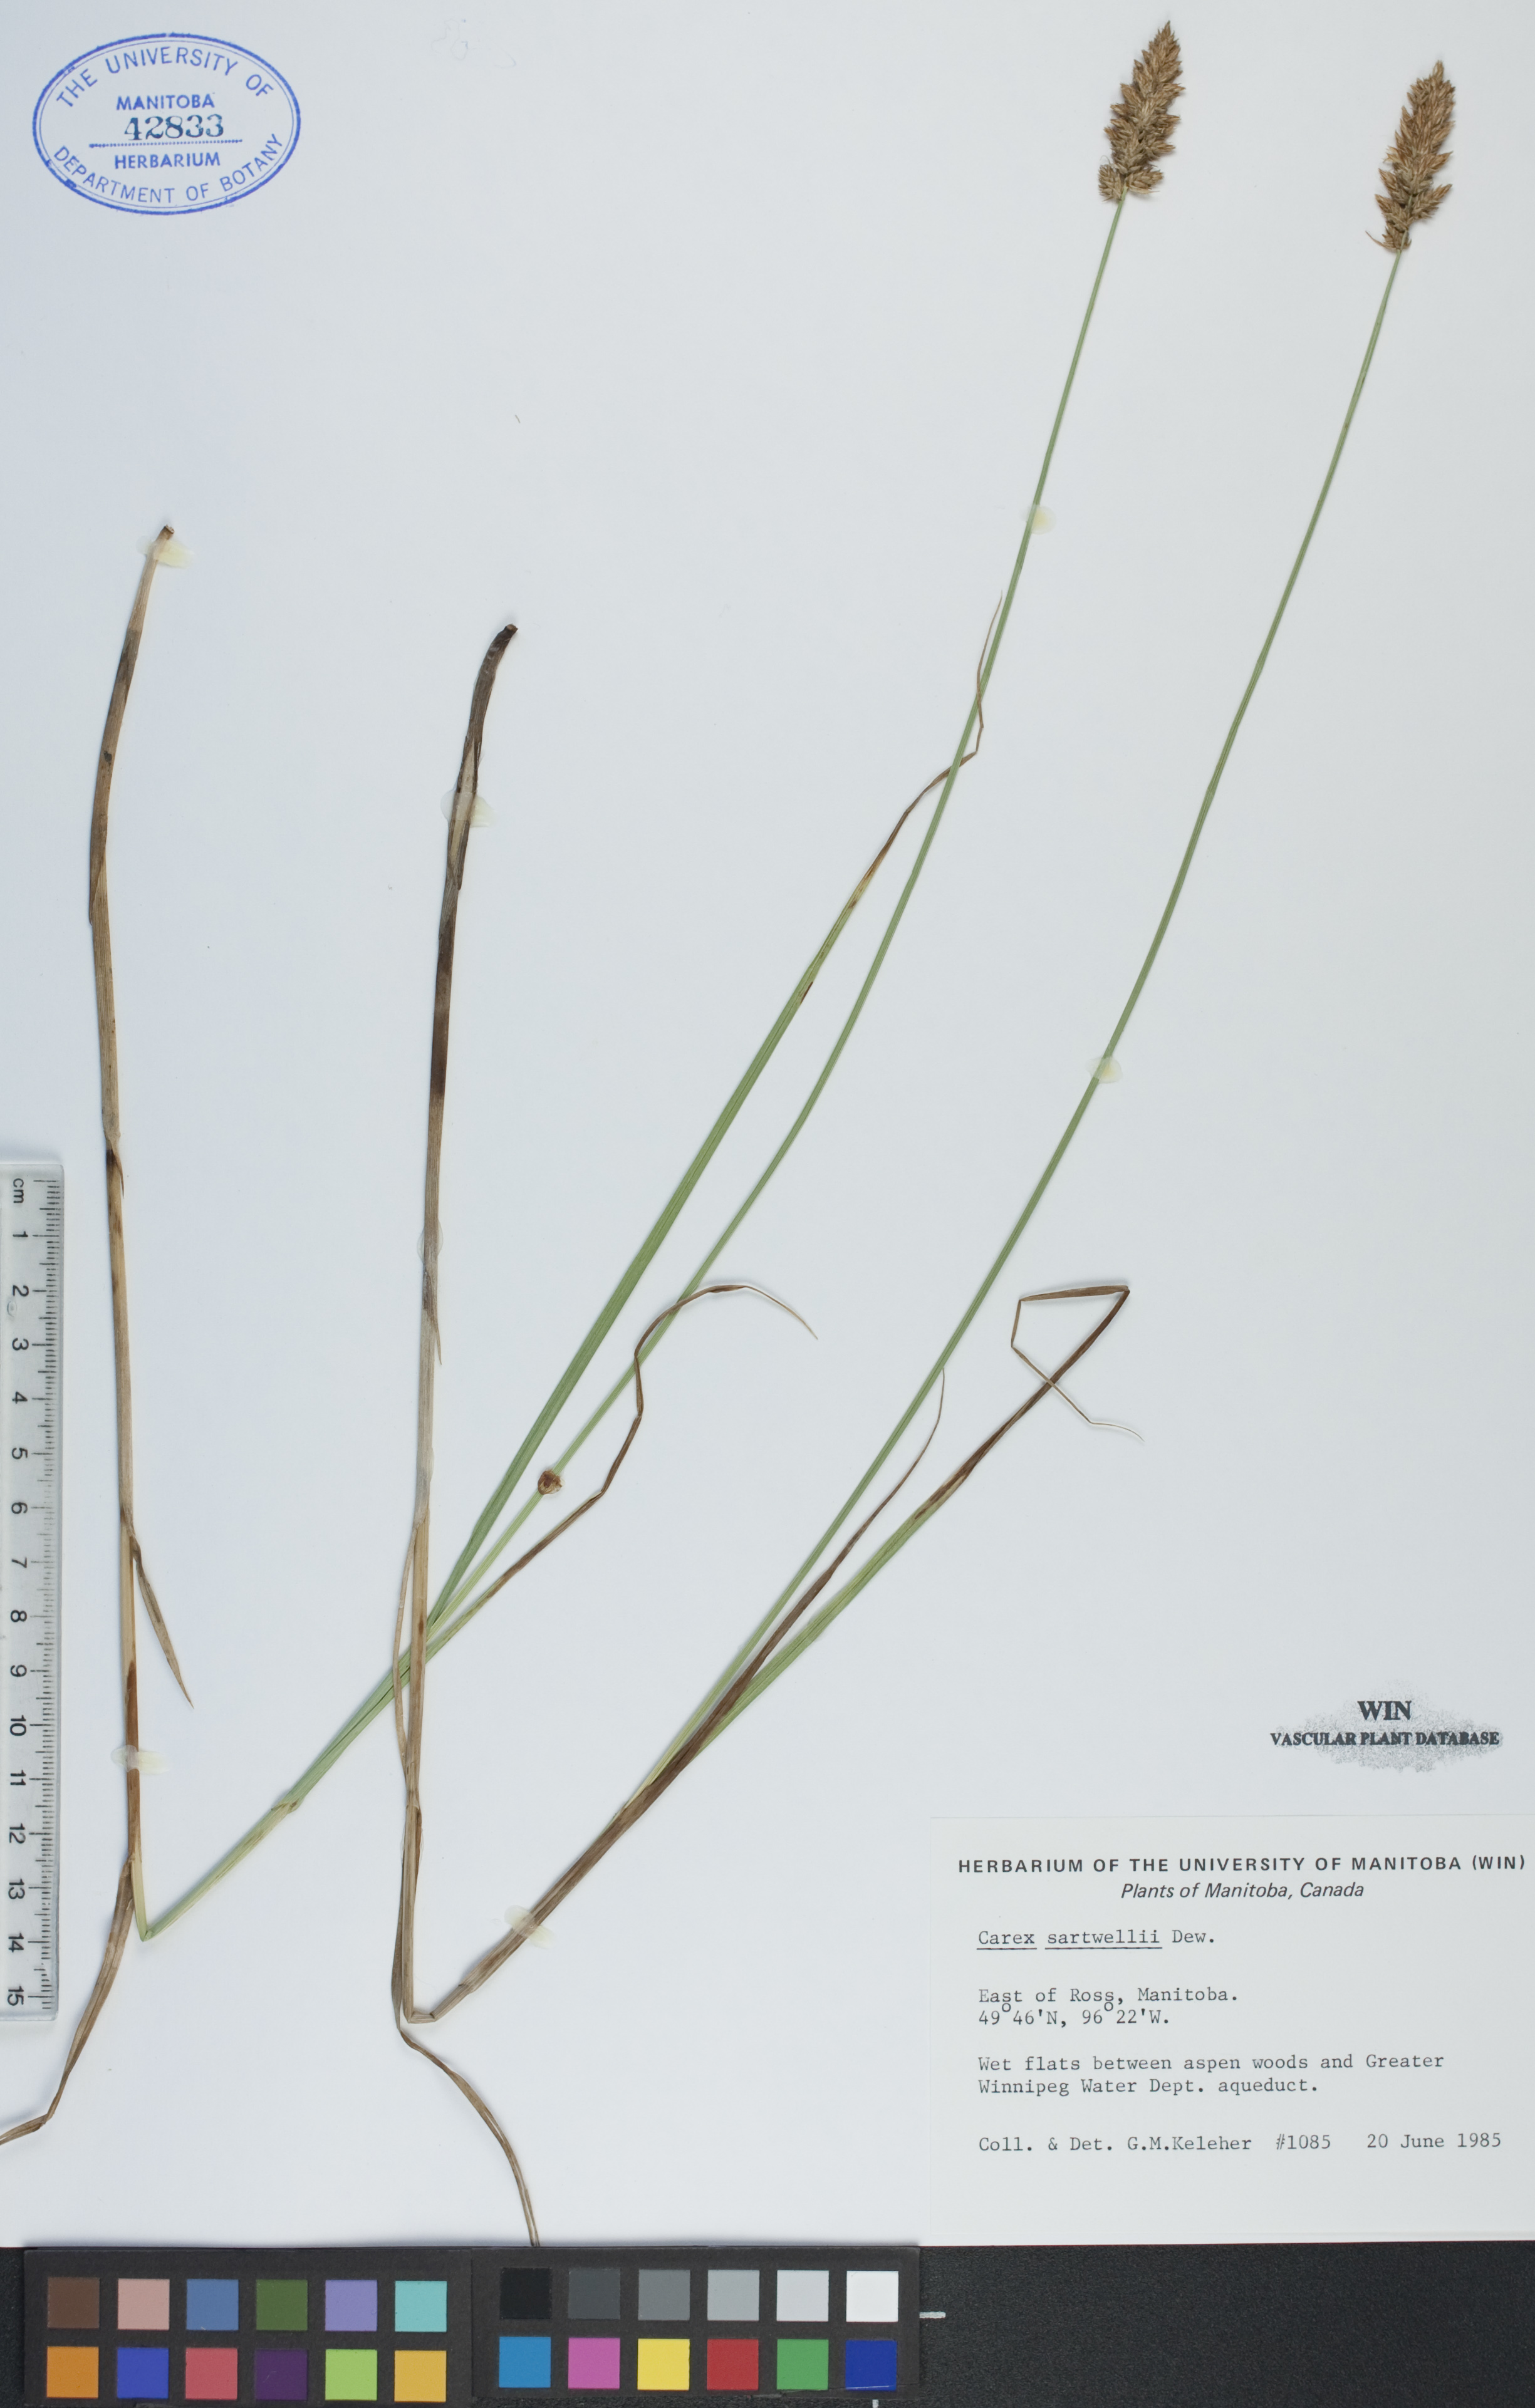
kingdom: Plantae
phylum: Tracheophyta
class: Liliopsida
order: Poales
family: Cyperaceae
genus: Carex
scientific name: Carex sartwellii
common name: Sartwell's sedge
